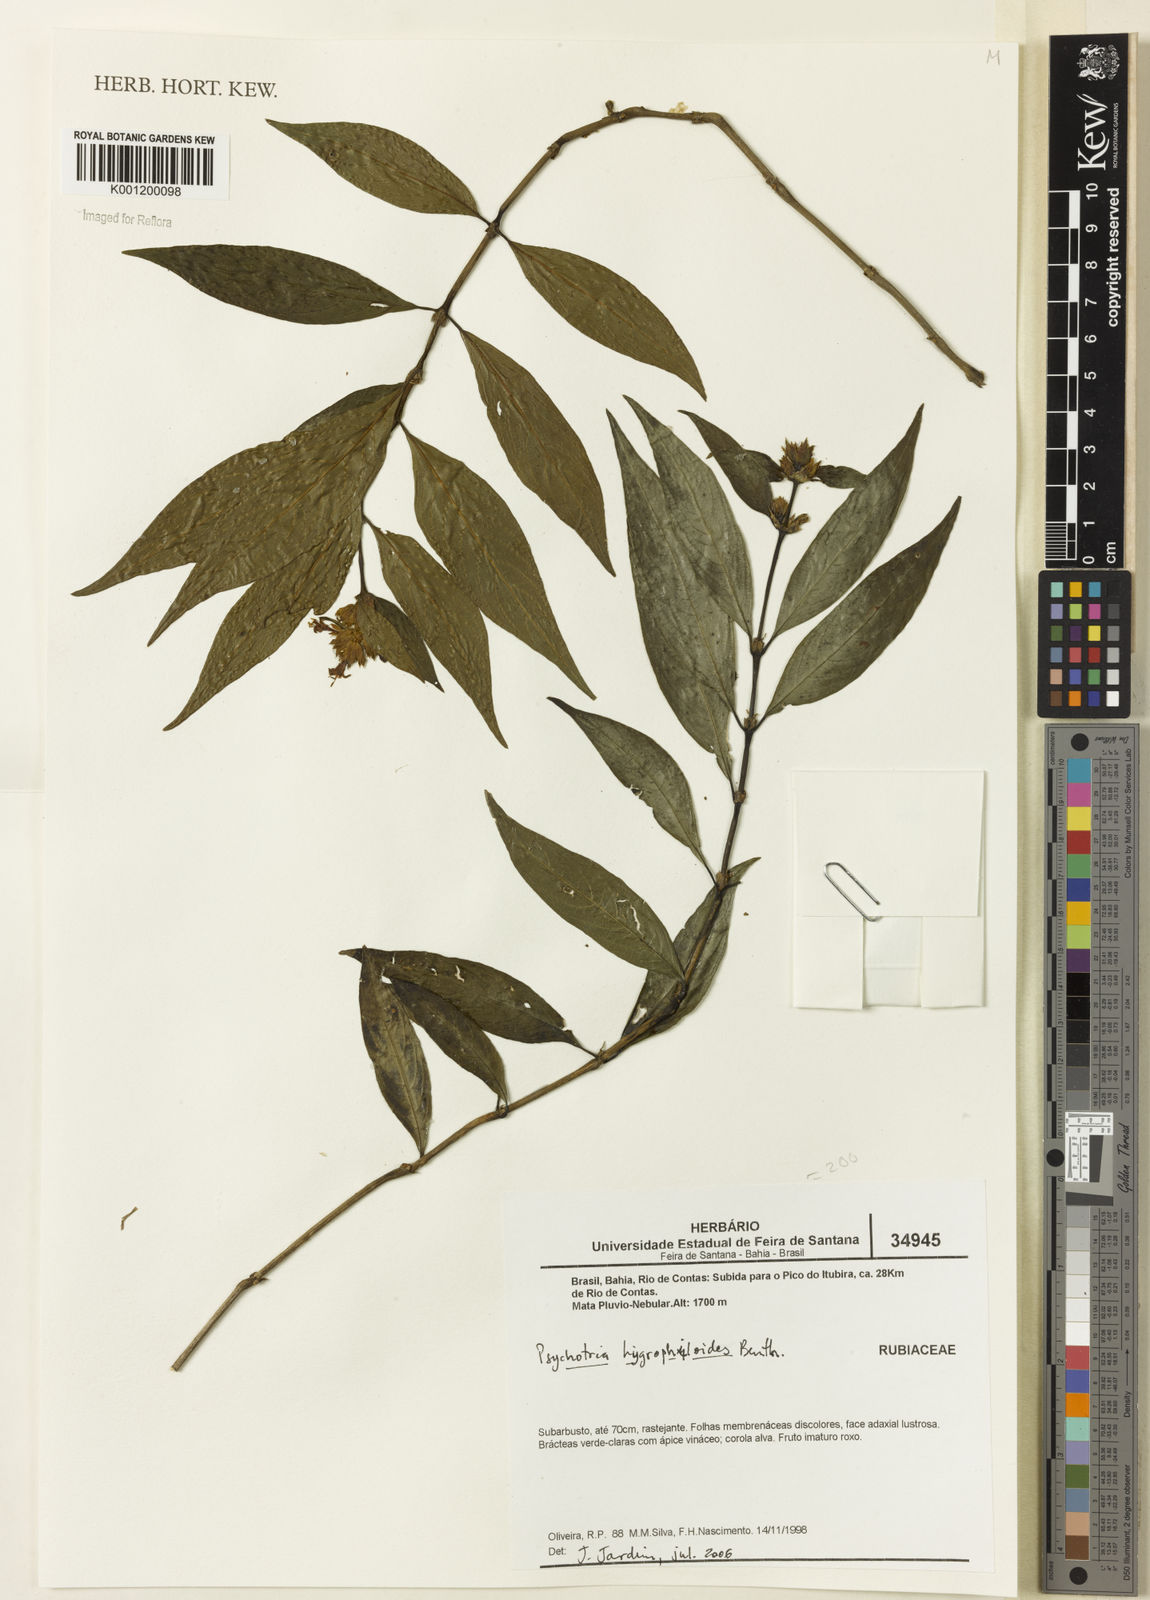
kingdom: Plantae
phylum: Tracheophyta
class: Magnoliopsida
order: Gentianales
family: Rubiaceae
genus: Psychotria
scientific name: Psychotria stachyoides
